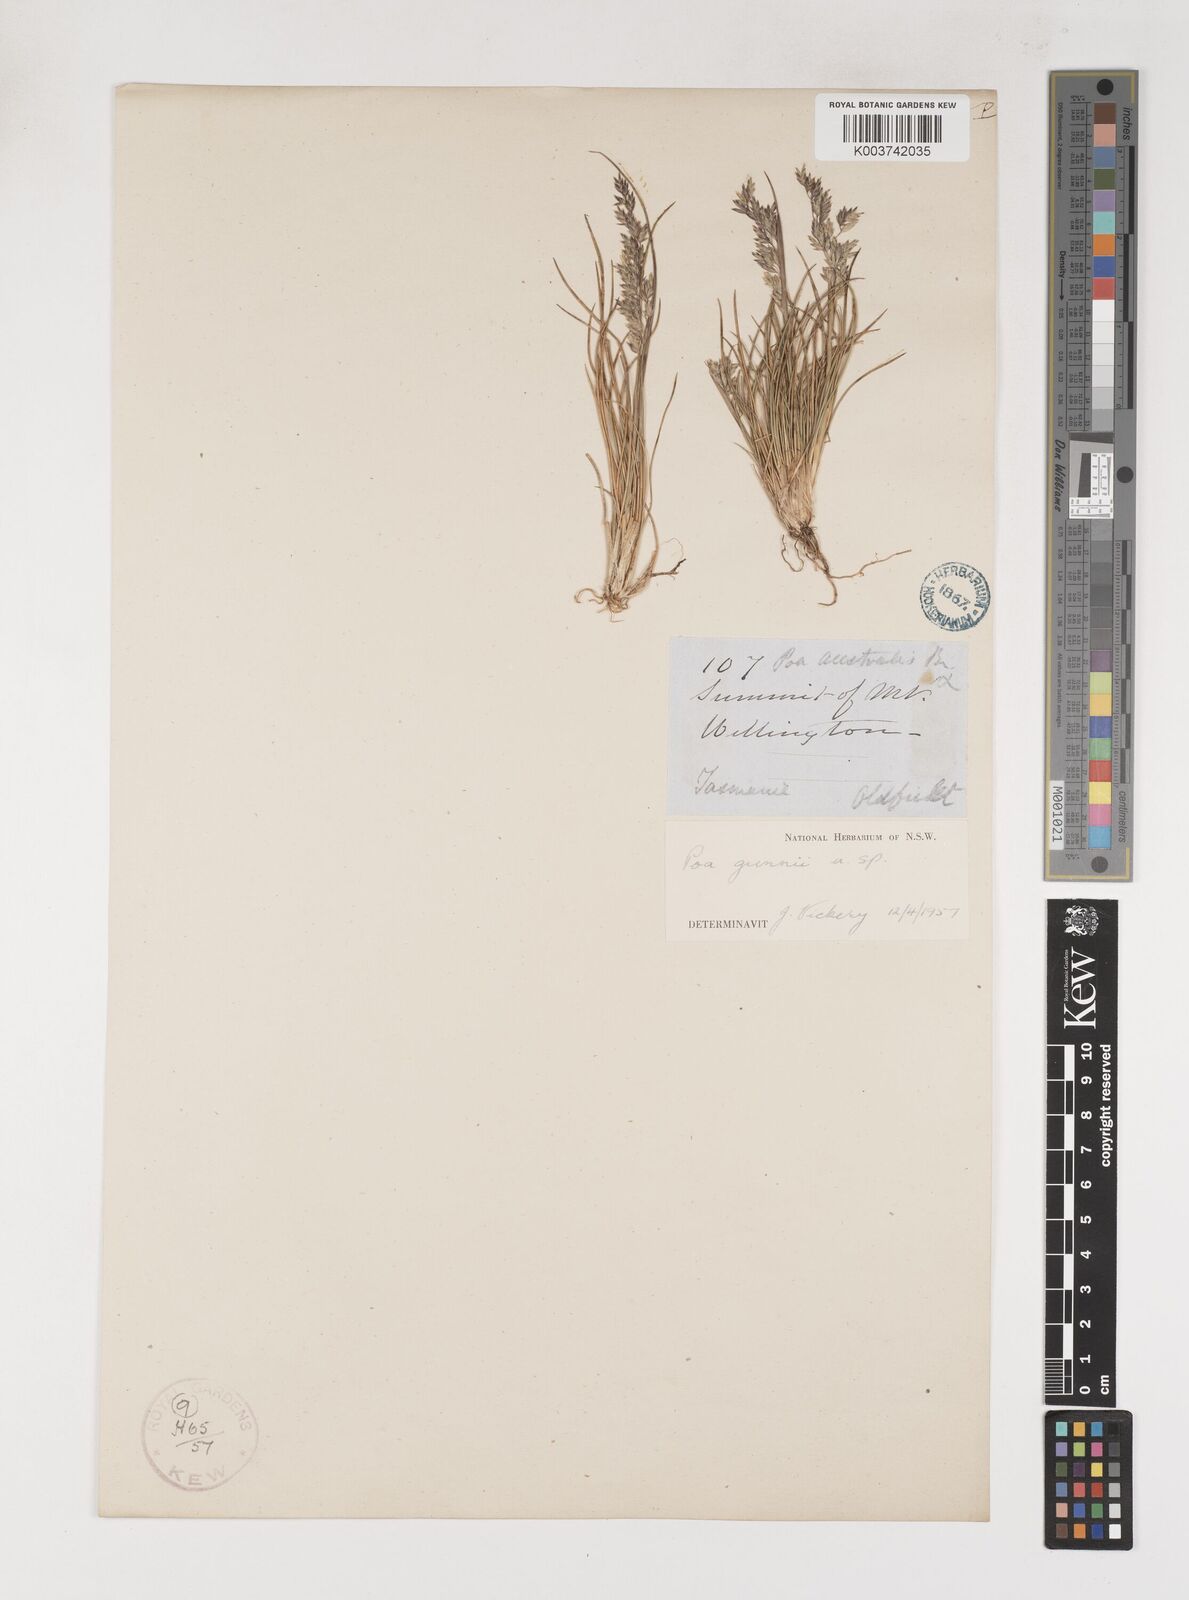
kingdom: Plantae
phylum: Tracheophyta
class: Liliopsida
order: Poales
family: Poaceae
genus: Poa
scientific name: Poa gunnii
